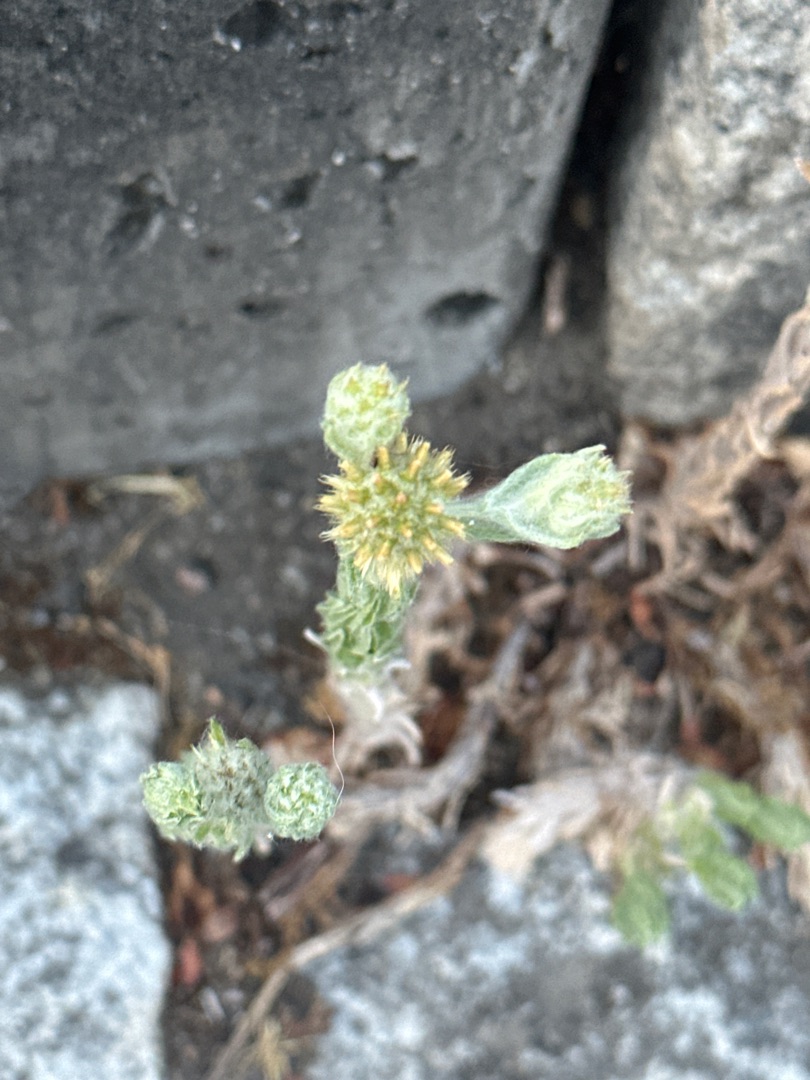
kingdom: Plantae
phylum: Tracheophyta
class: Magnoliopsida
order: Asterales
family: Asteraceae
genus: Filago
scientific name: Filago germanica
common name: Kugle-museurt
